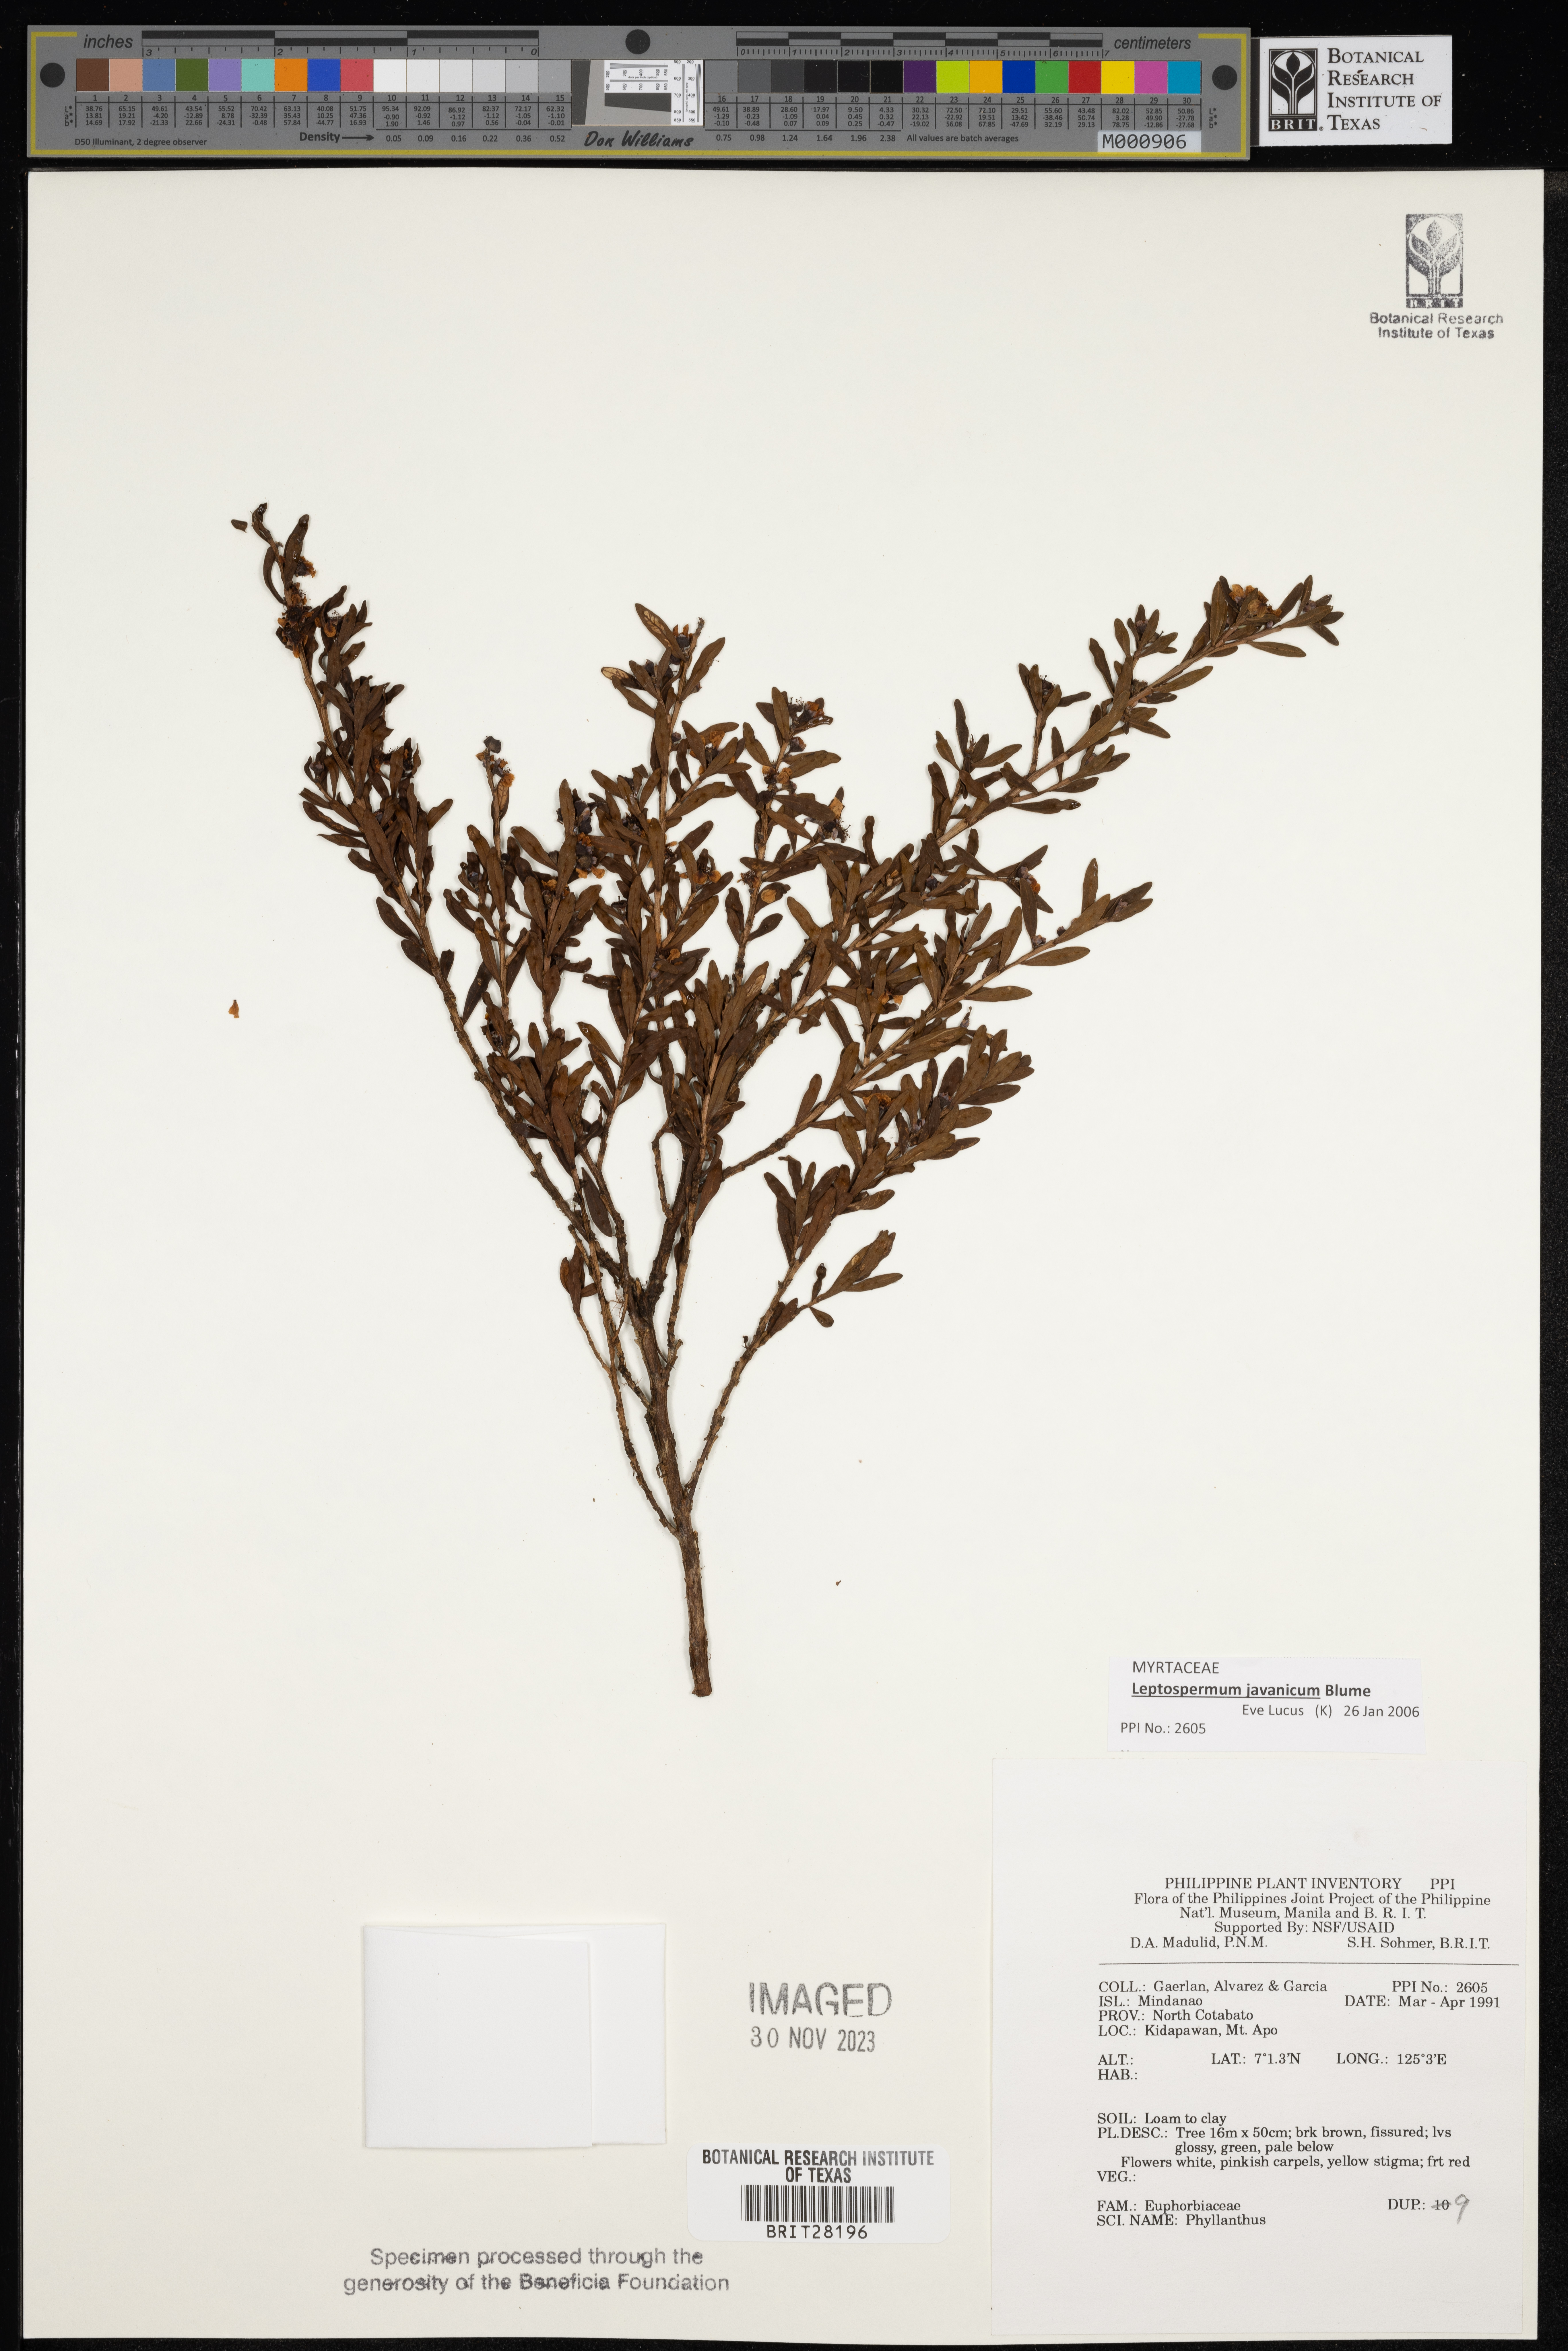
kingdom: Plantae
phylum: Tracheophyta
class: Magnoliopsida
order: Malpighiales
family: Phyllanthaceae
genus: Phyllanthus
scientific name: Phyllanthus
